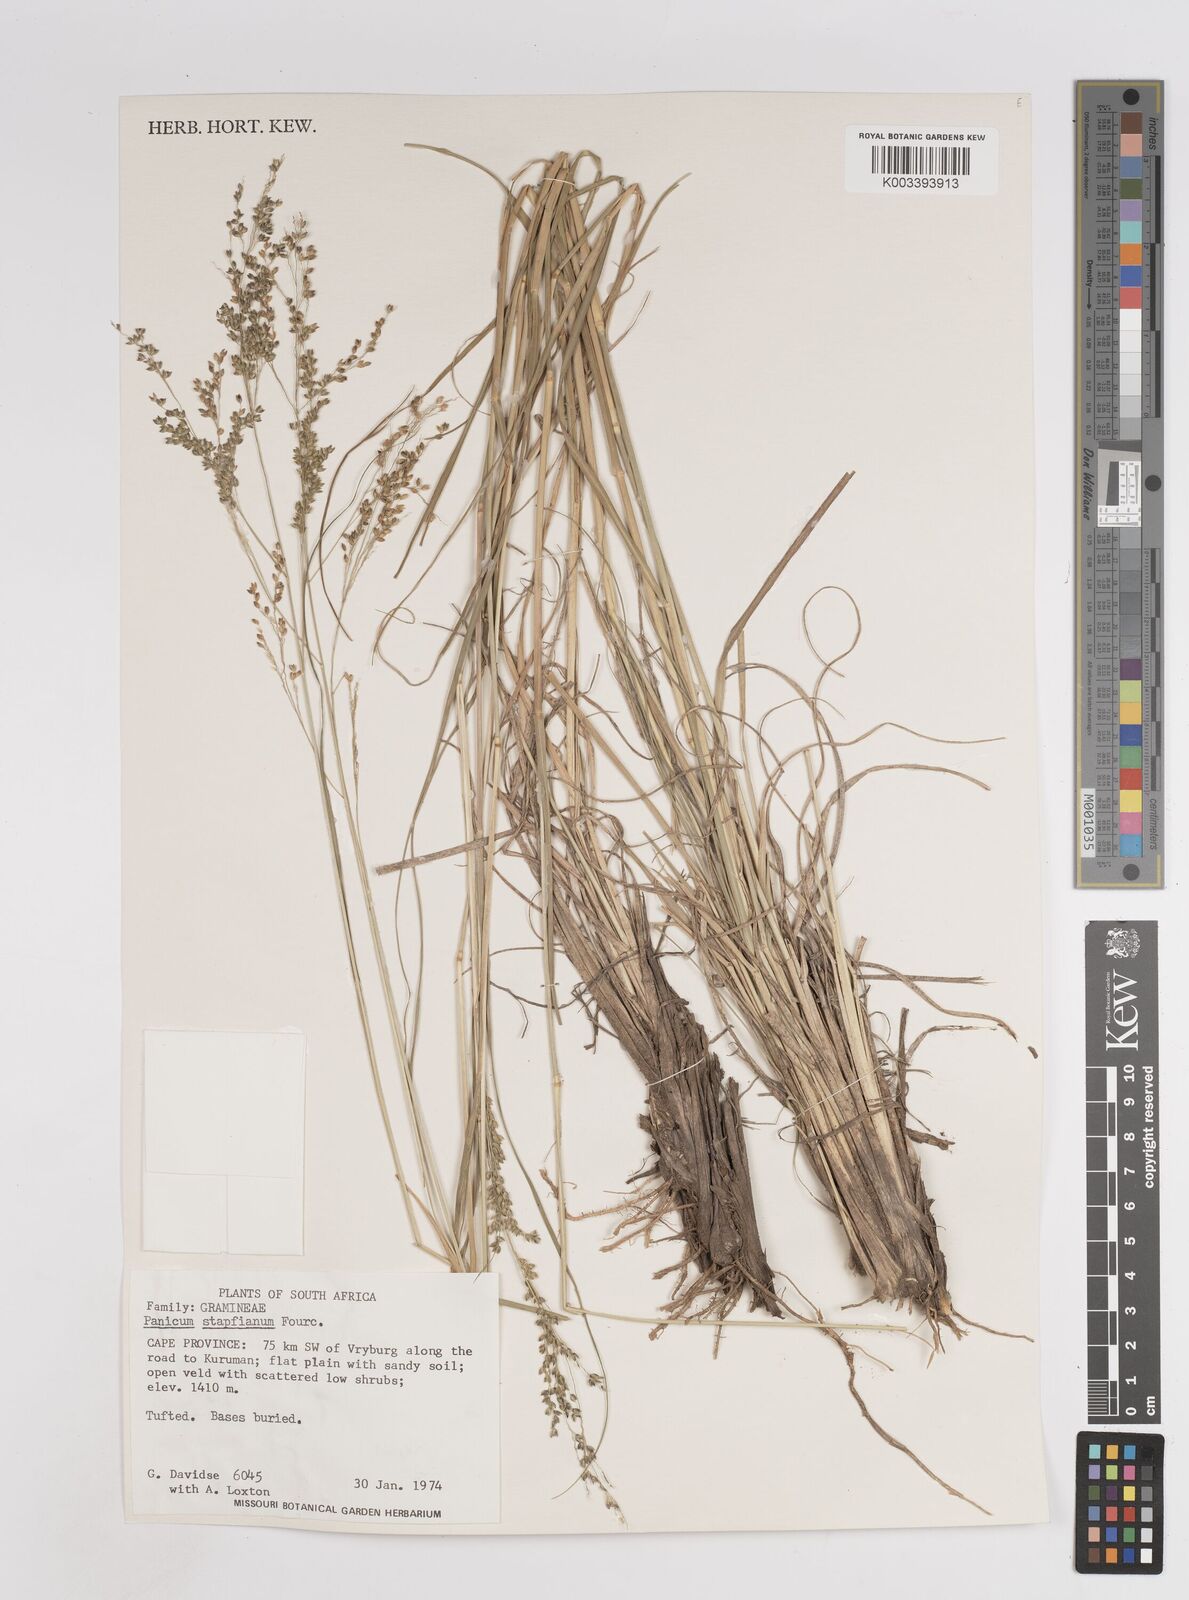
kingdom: Plantae
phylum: Tracheophyta
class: Liliopsida
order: Poales
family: Poaceae
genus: Panicum
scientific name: Panicum stapfianum
